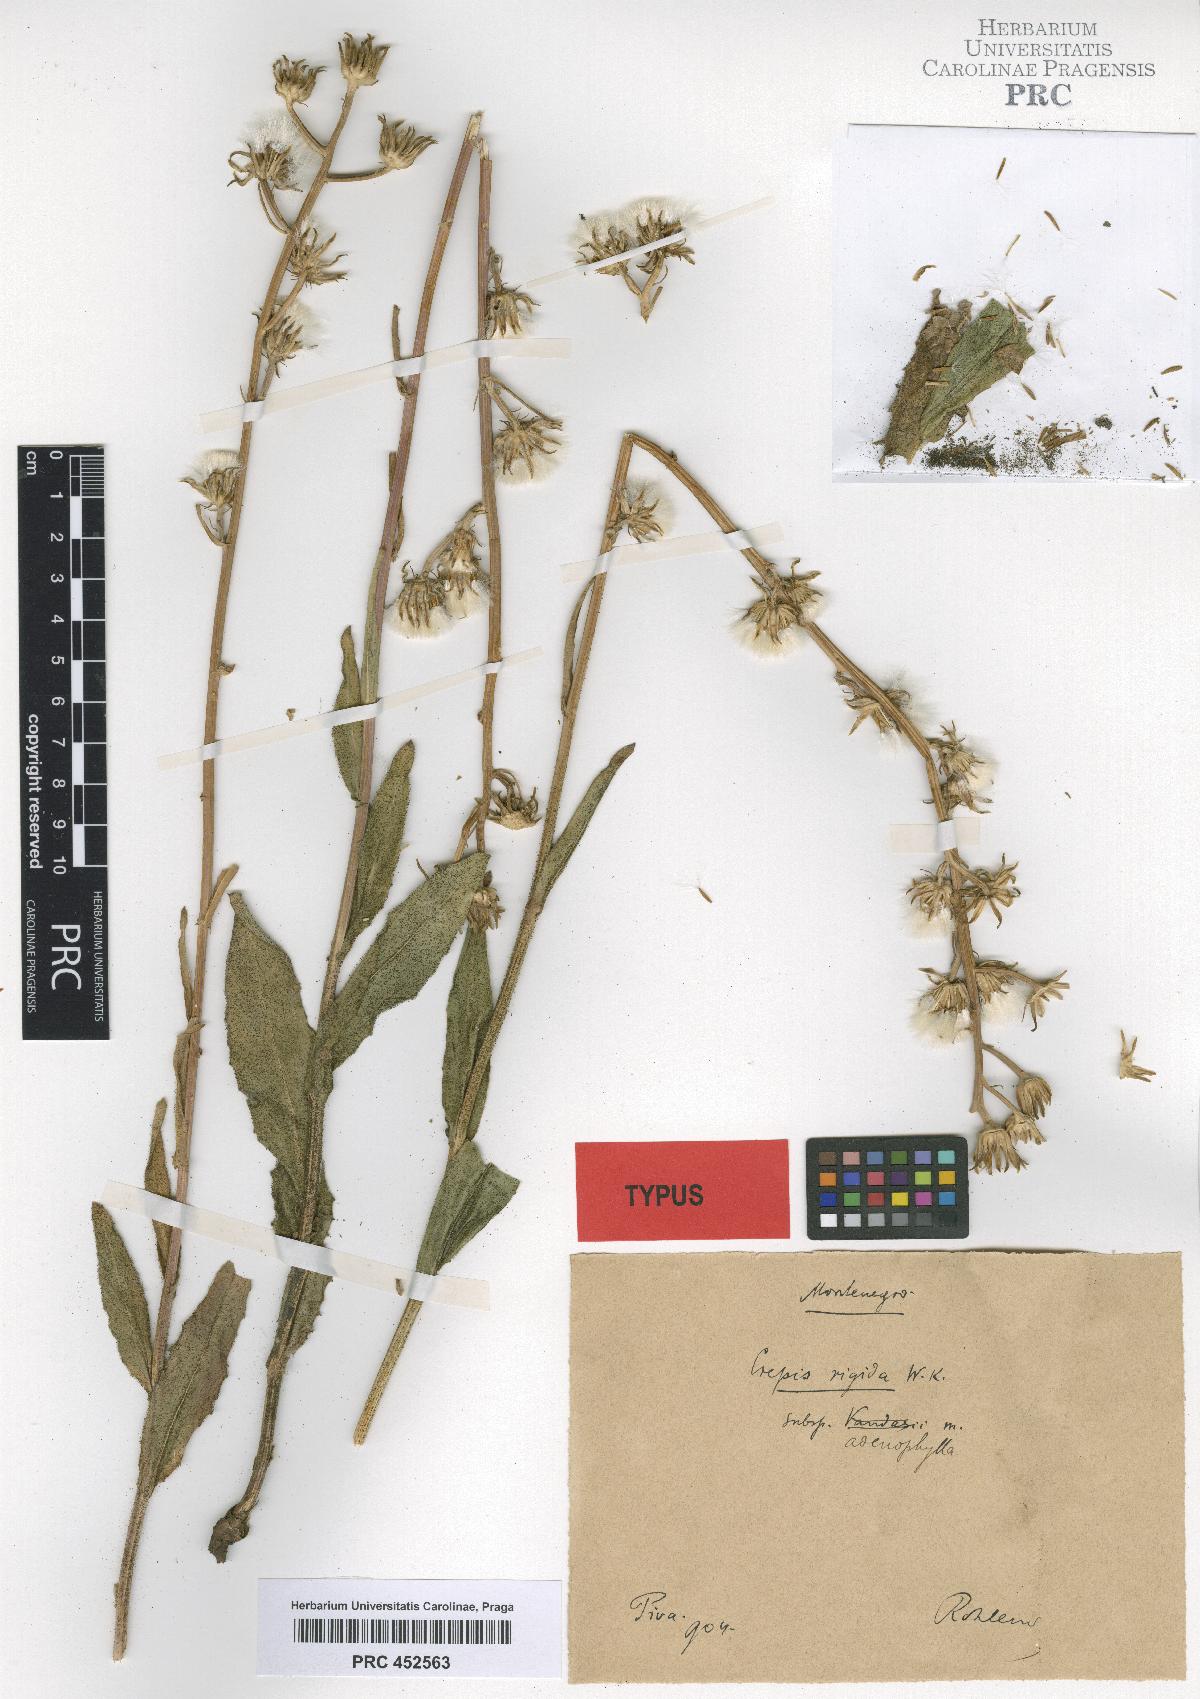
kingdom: Plantae
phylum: Tracheophyta
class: Magnoliopsida
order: Asterales
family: Asteraceae
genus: Crepis
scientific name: Crepis pannonica
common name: Pasture hawksbeard
